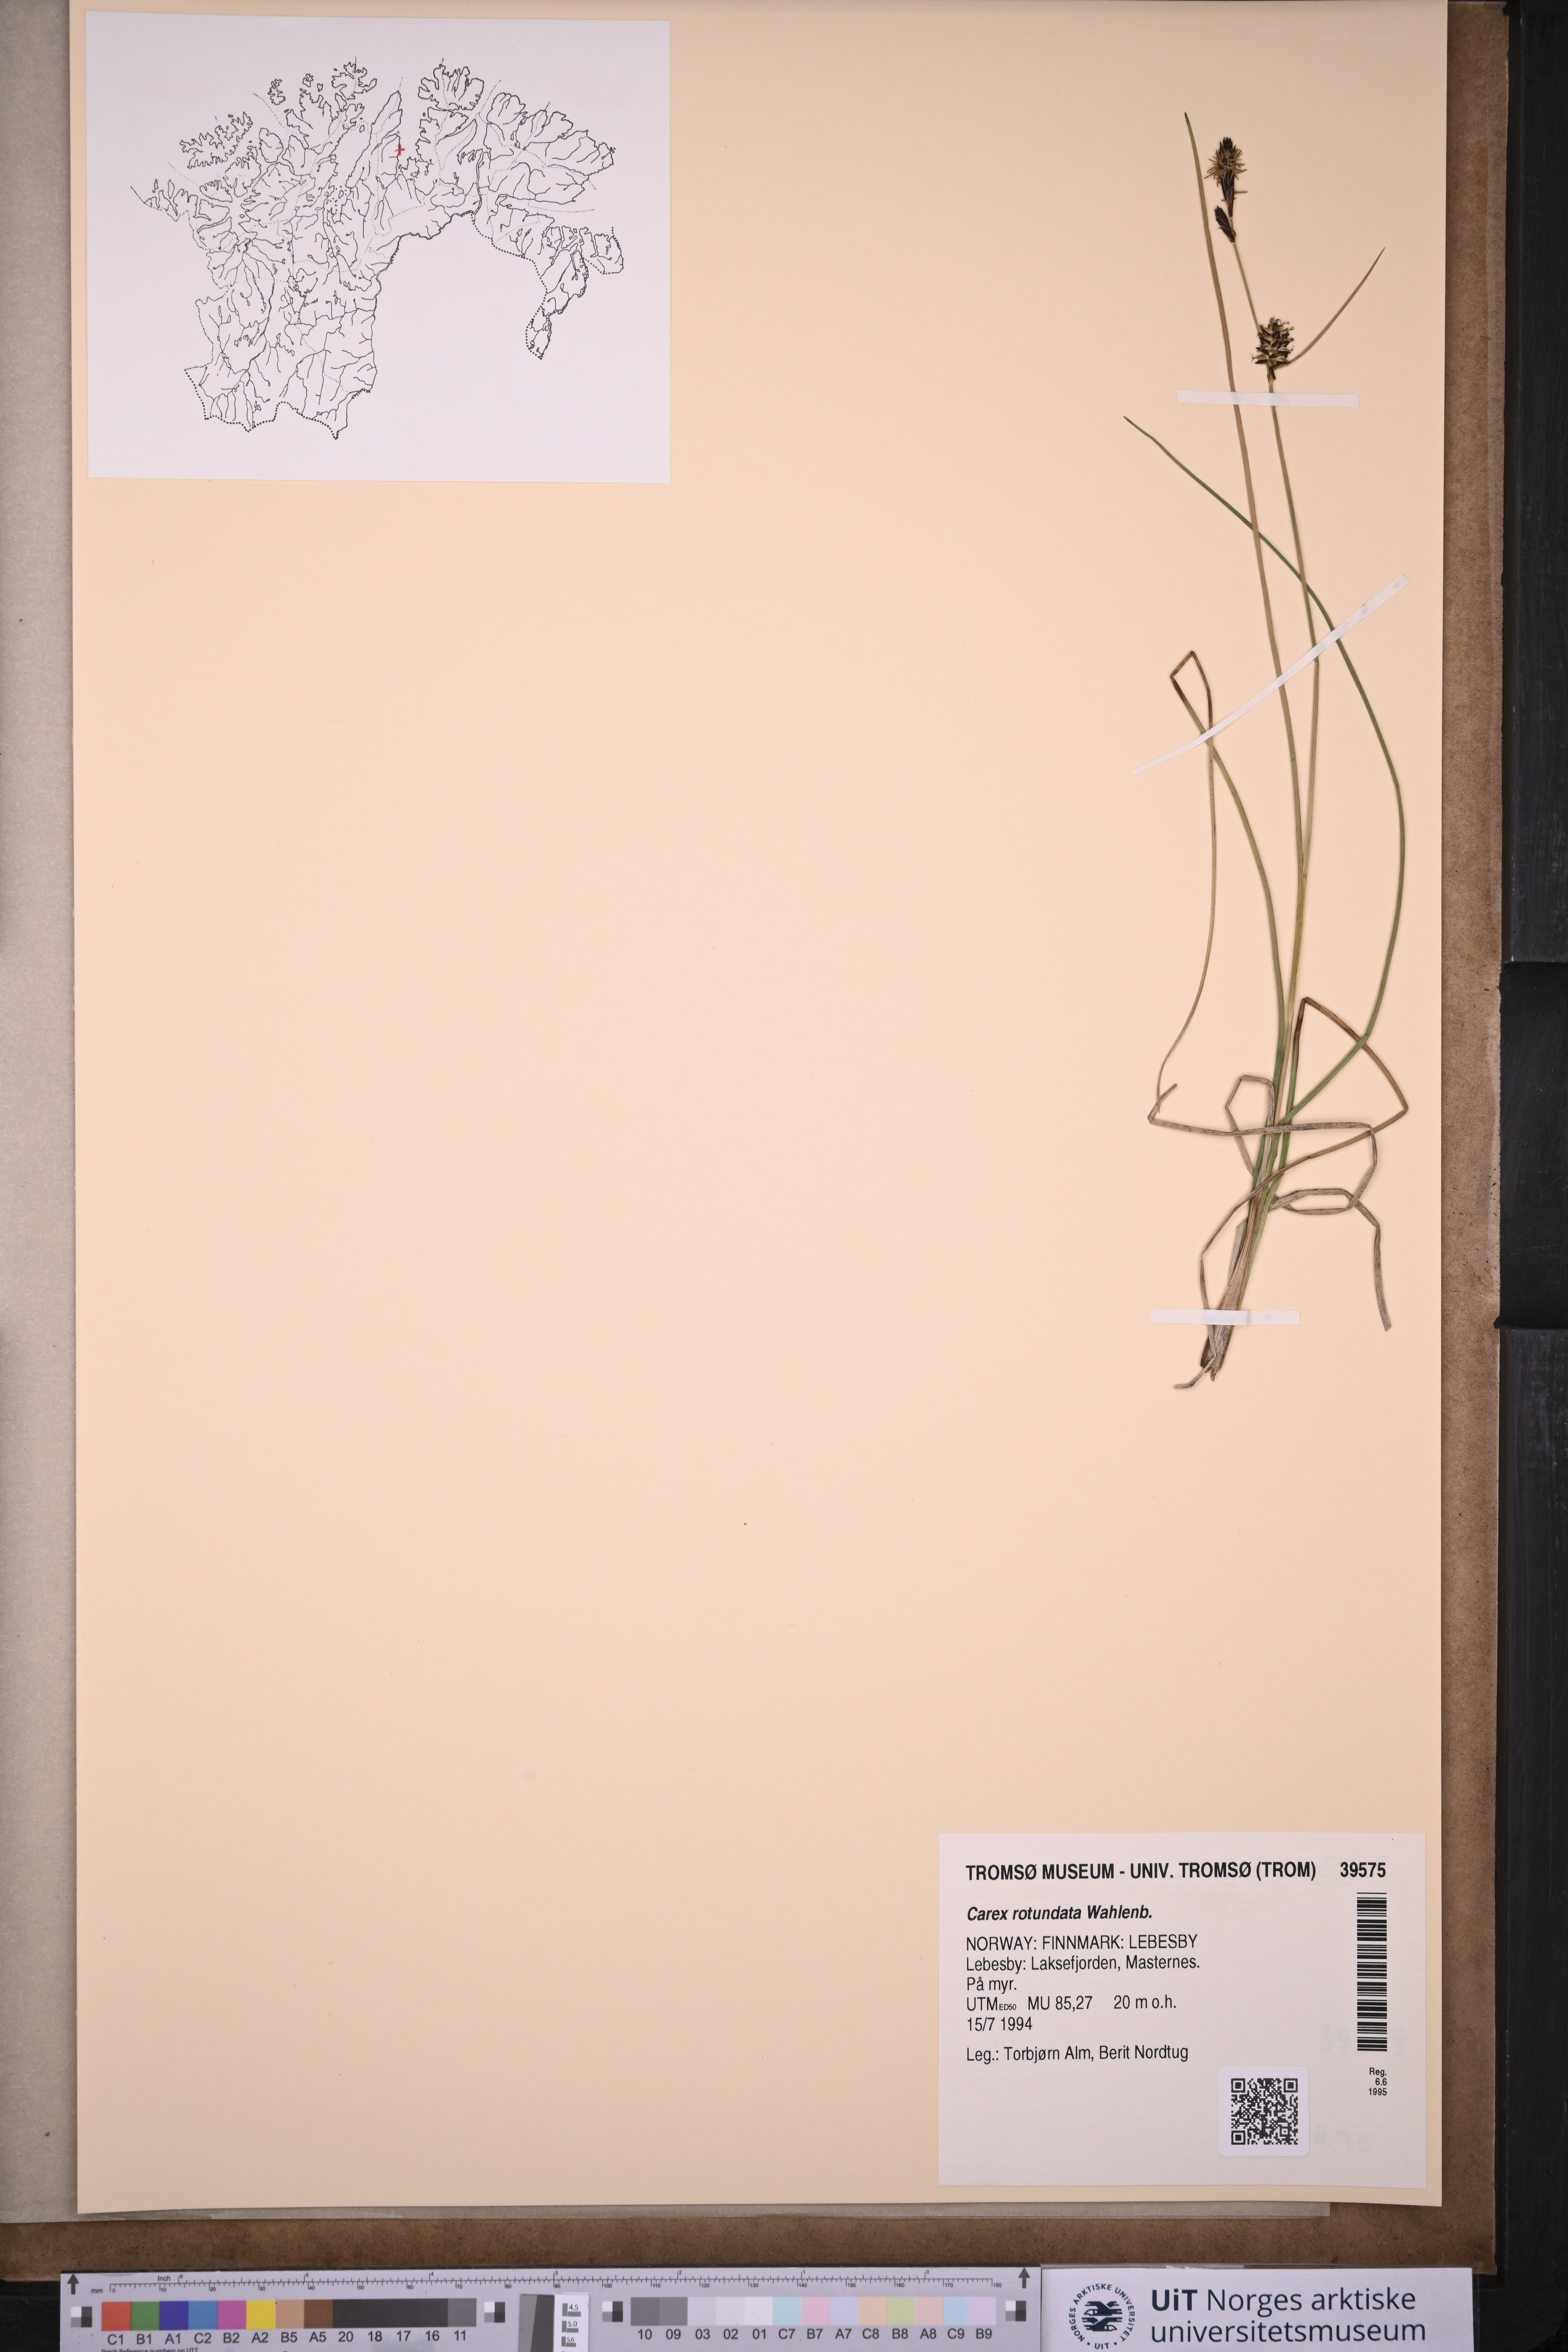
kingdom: Plantae
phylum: Tracheophyta
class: Liliopsida
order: Poales
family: Cyperaceae
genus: Carex
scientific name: Carex rotundata
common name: Round-fruited sedge
